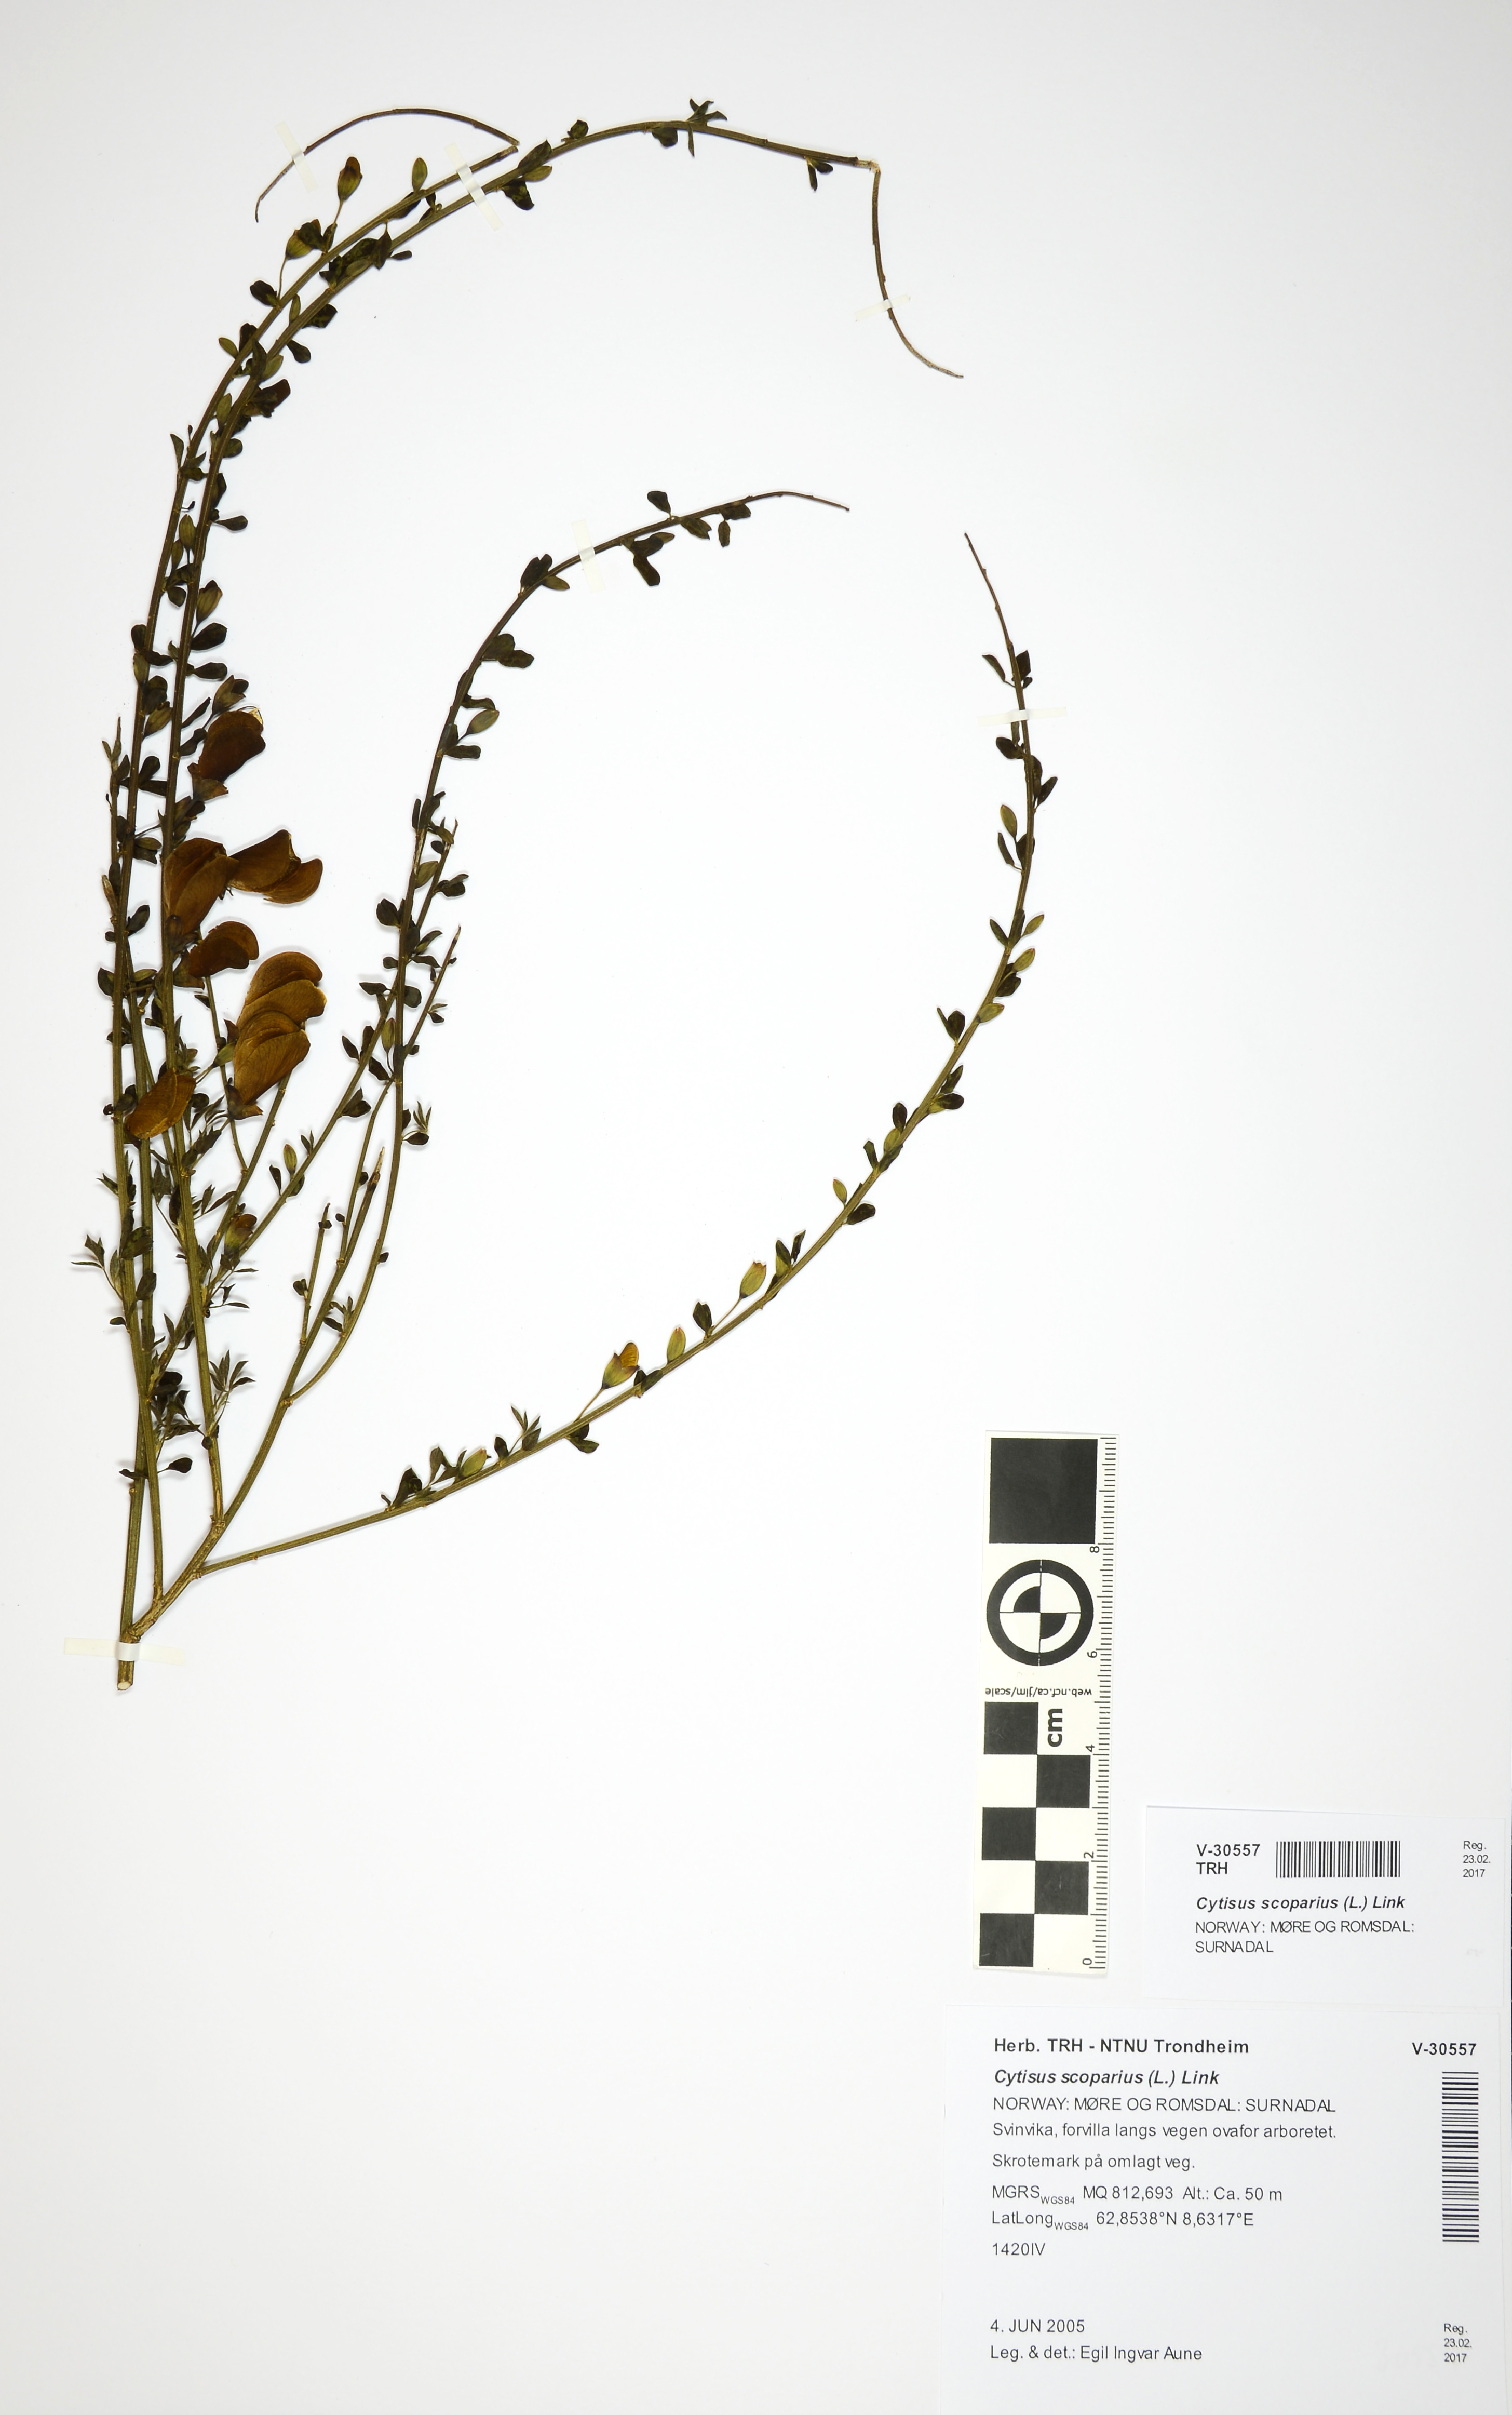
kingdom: Plantae
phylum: Tracheophyta
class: Magnoliopsida
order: Fabales
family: Fabaceae
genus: Cytisus
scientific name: Cytisus scoparius
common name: Scotch broom
